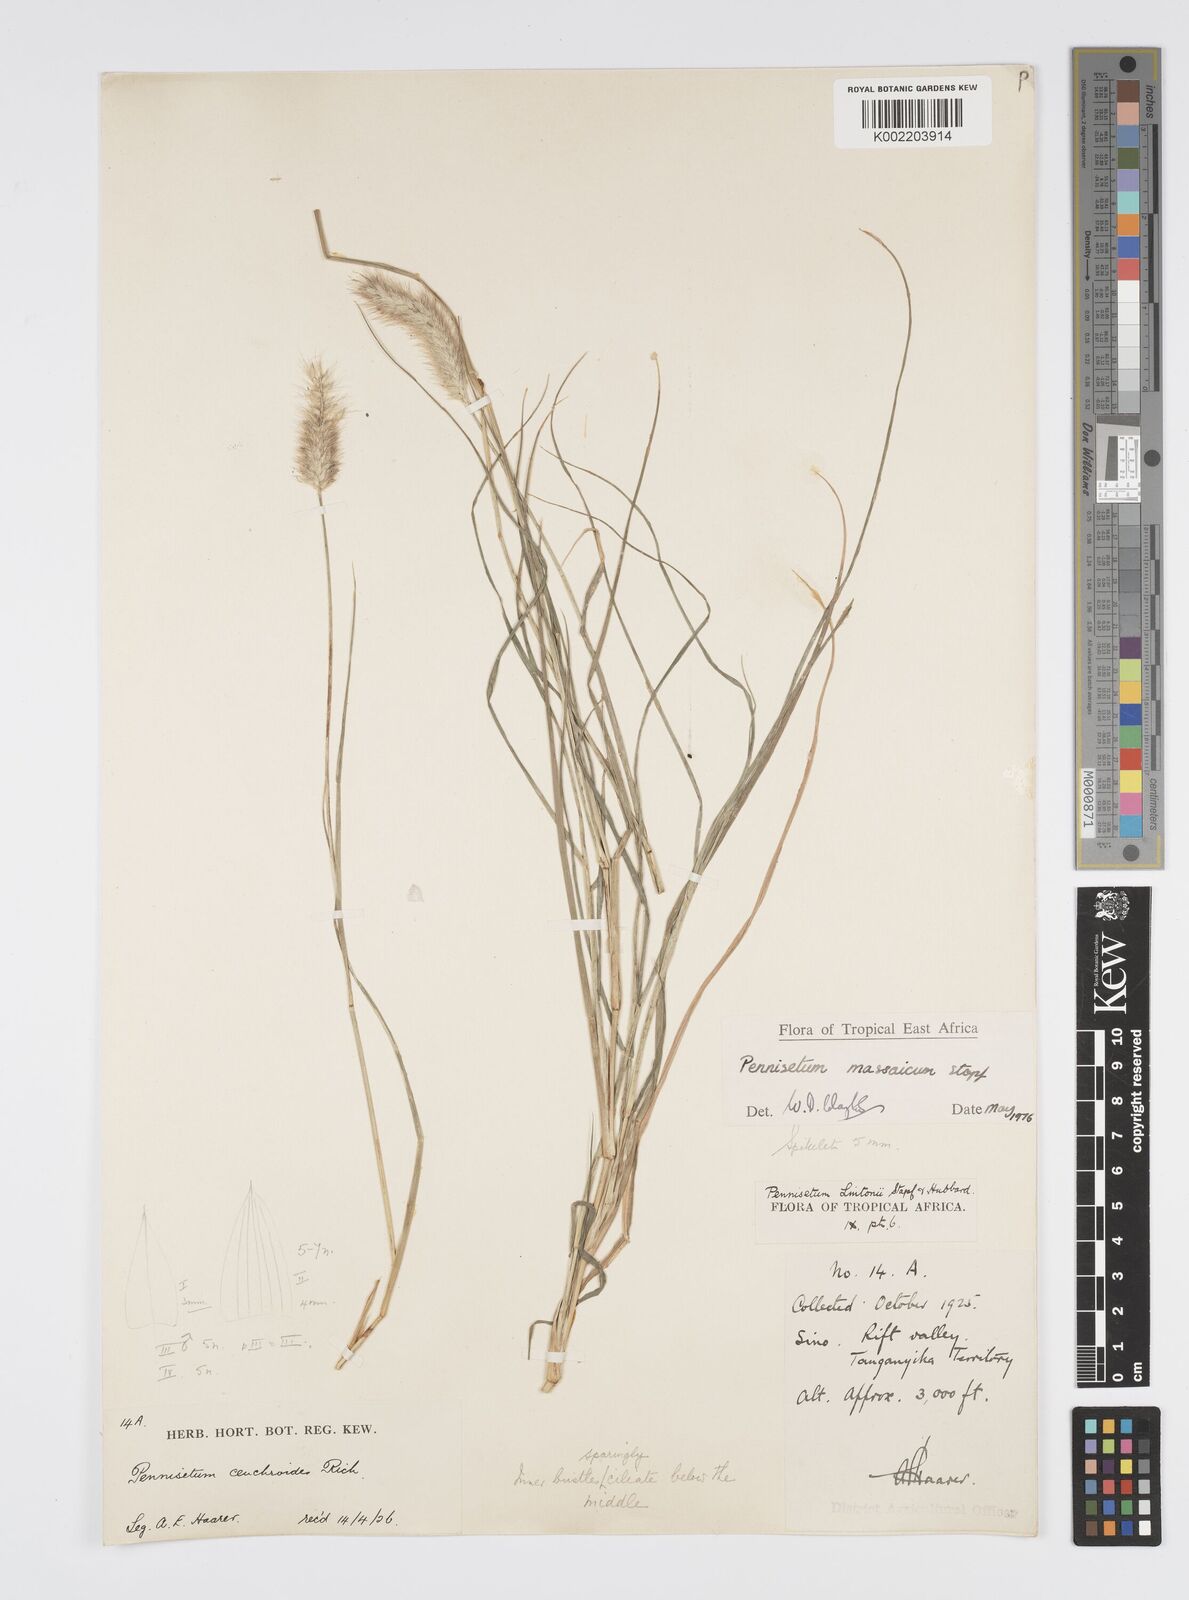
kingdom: Plantae
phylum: Tracheophyta
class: Liliopsida
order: Poales
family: Poaceae
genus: Cenchrus
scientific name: Cenchrus massaicus
